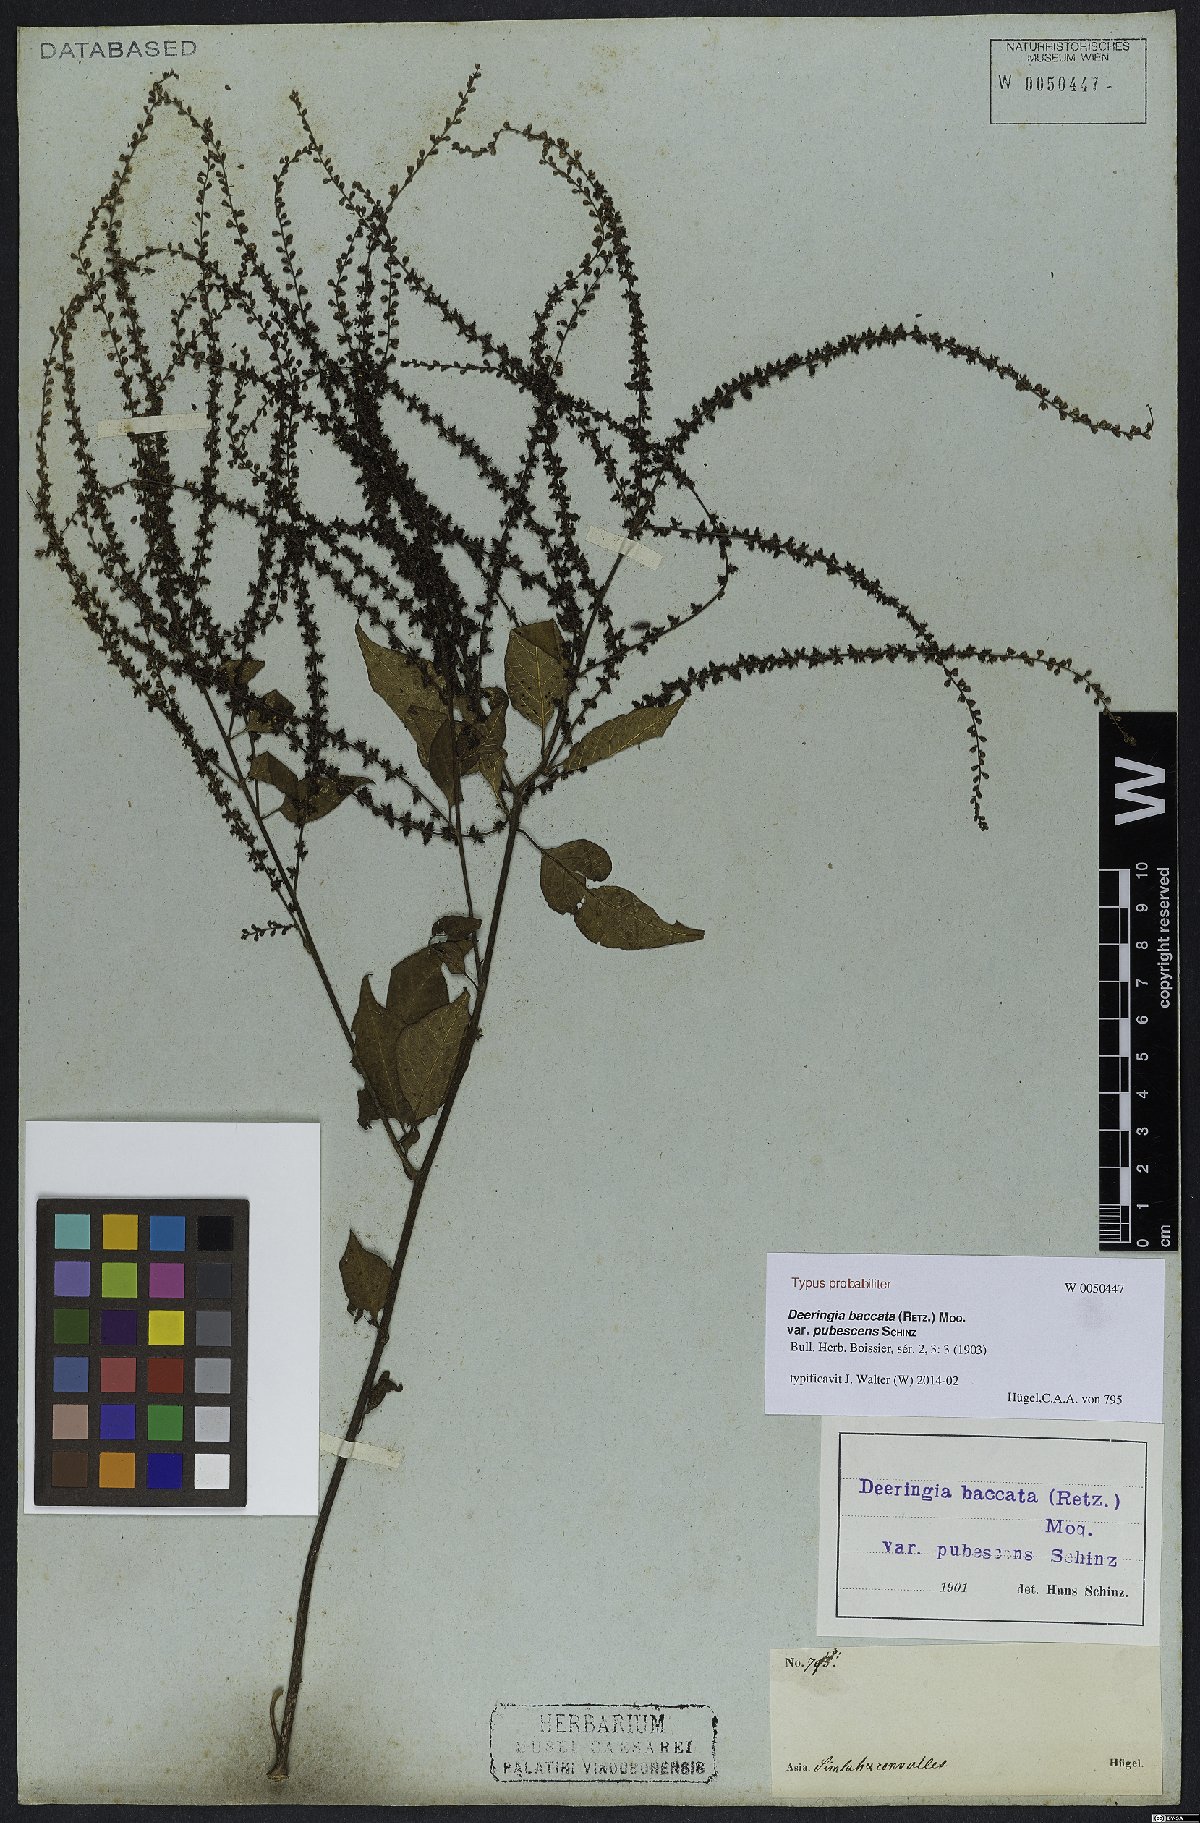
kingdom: Plantae
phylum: Tracheophyta
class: Magnoliopsida
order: Caryophyllales
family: Amaranthaceae
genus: Deeringia
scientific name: Deeringia amaranthoides
